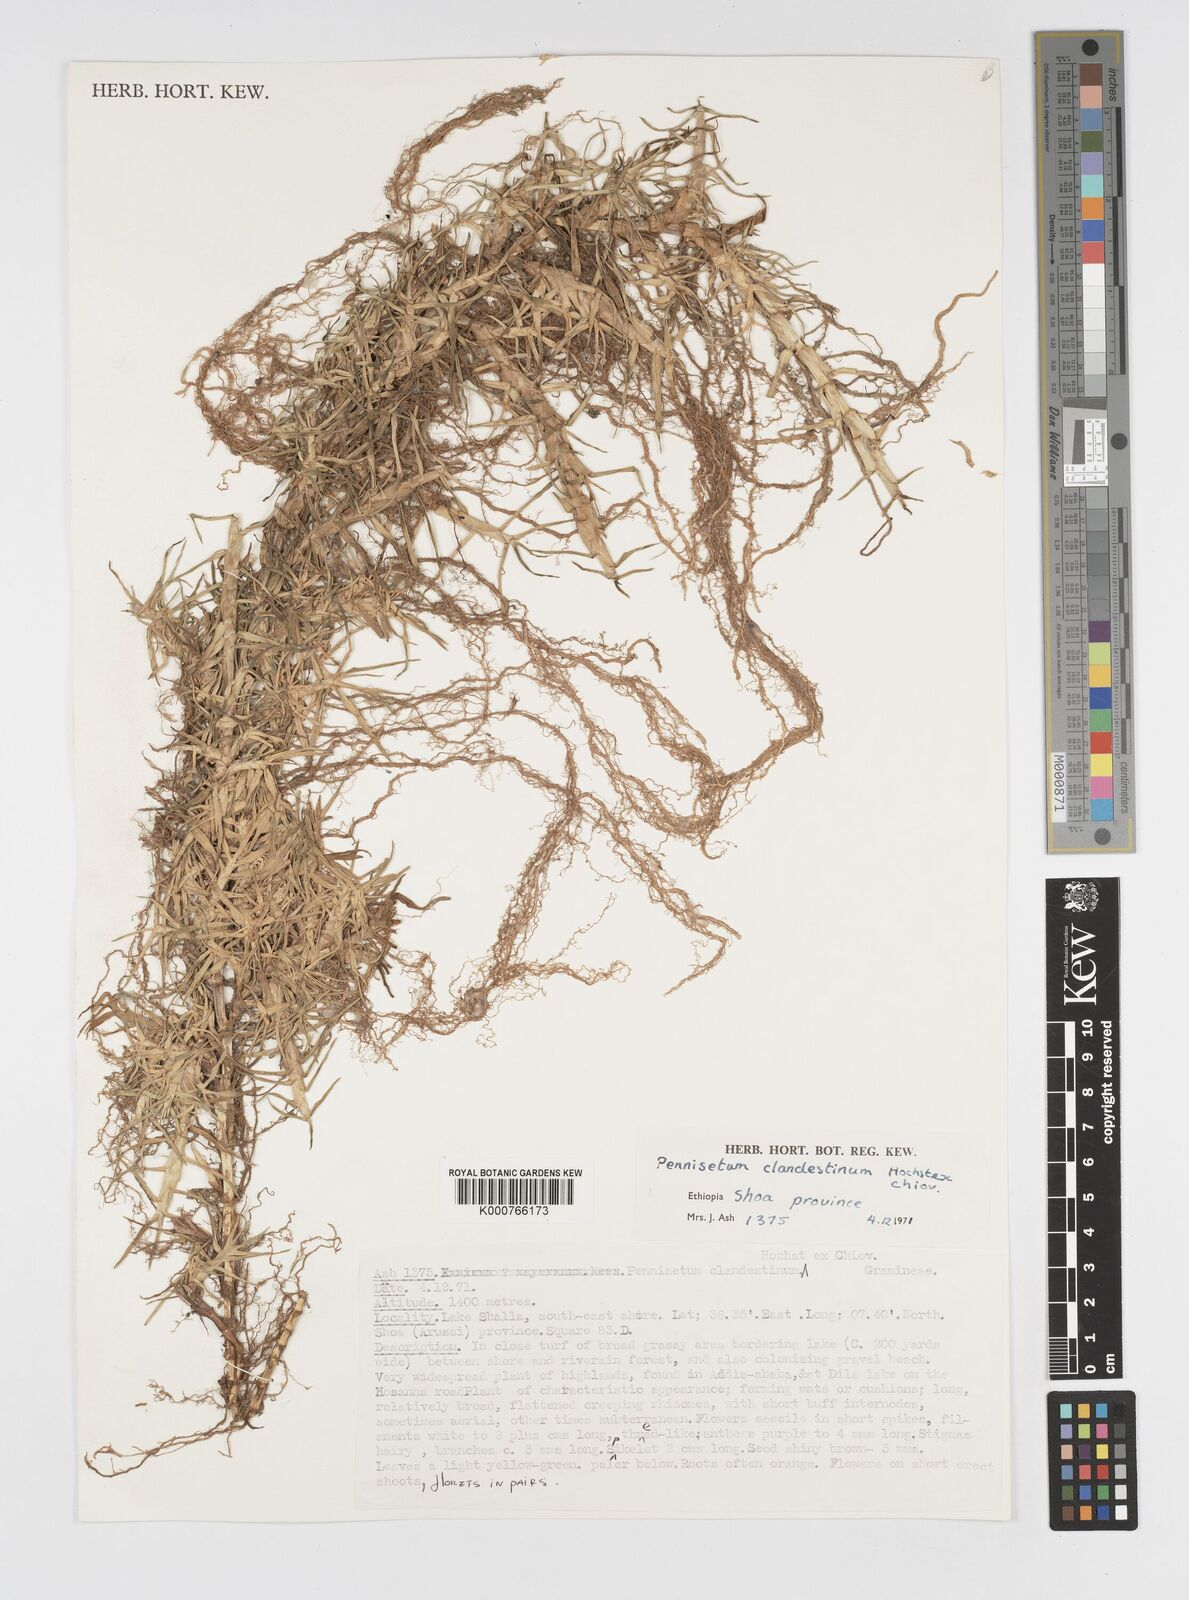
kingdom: Plantae
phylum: Tracheophyta
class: Liliopsida
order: Poales
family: Poaceae
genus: Cenchrus
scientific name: Cenchrus clandestinus
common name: Kikuyugrass
